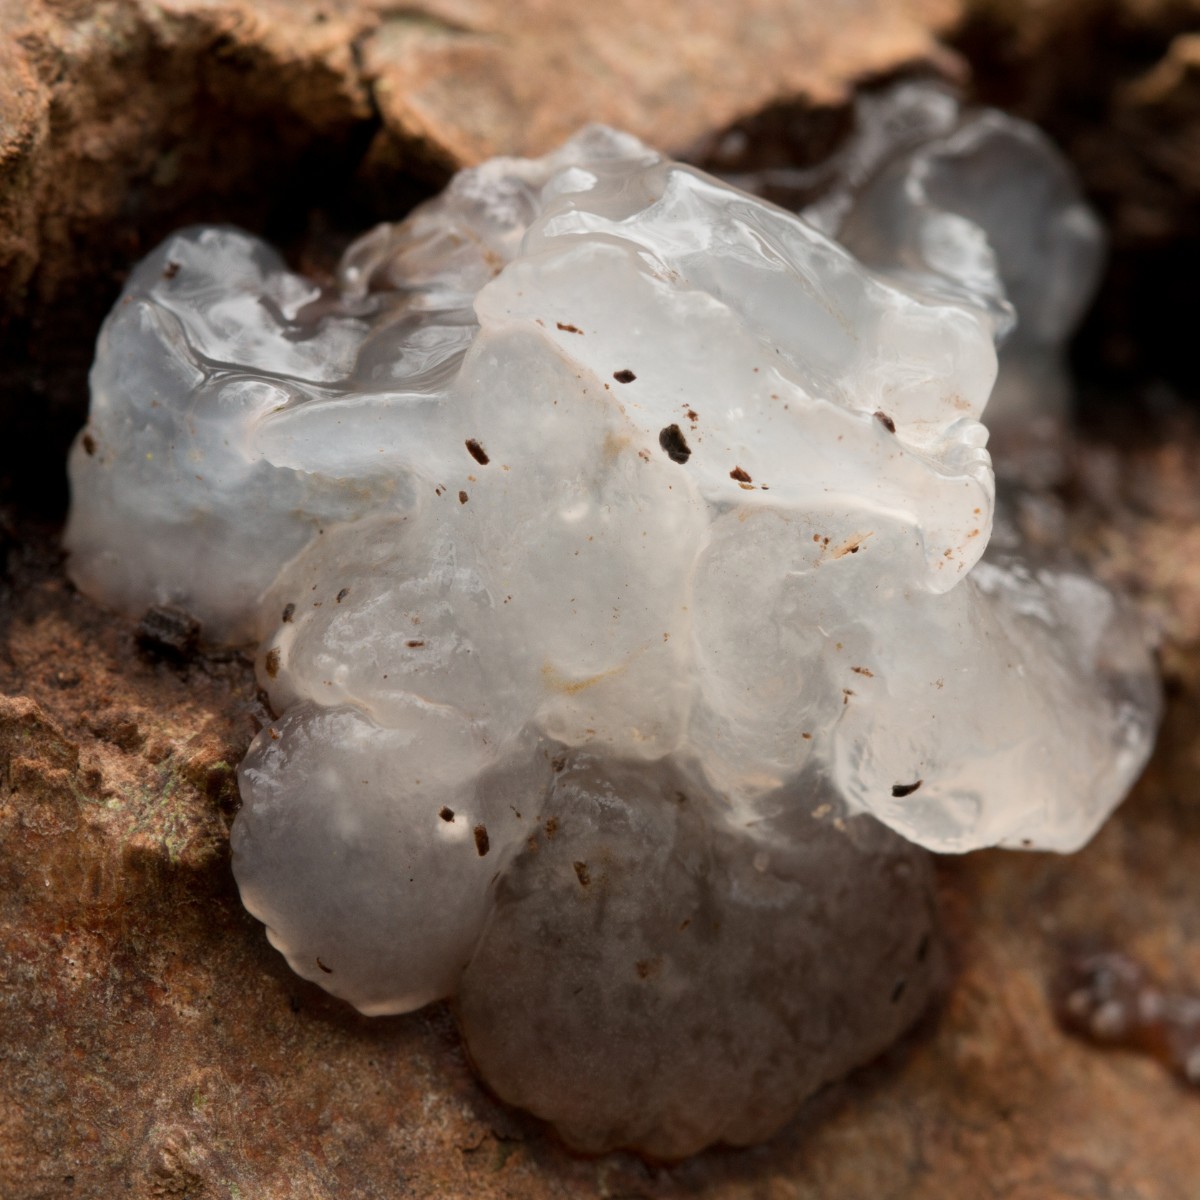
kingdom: Fungi
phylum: Basidiomycota
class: Agaricomycetes
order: Auriculariales
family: Hyaloriaceae
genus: Myxarium
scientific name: Myxarium nucleatum
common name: klar bævretop
